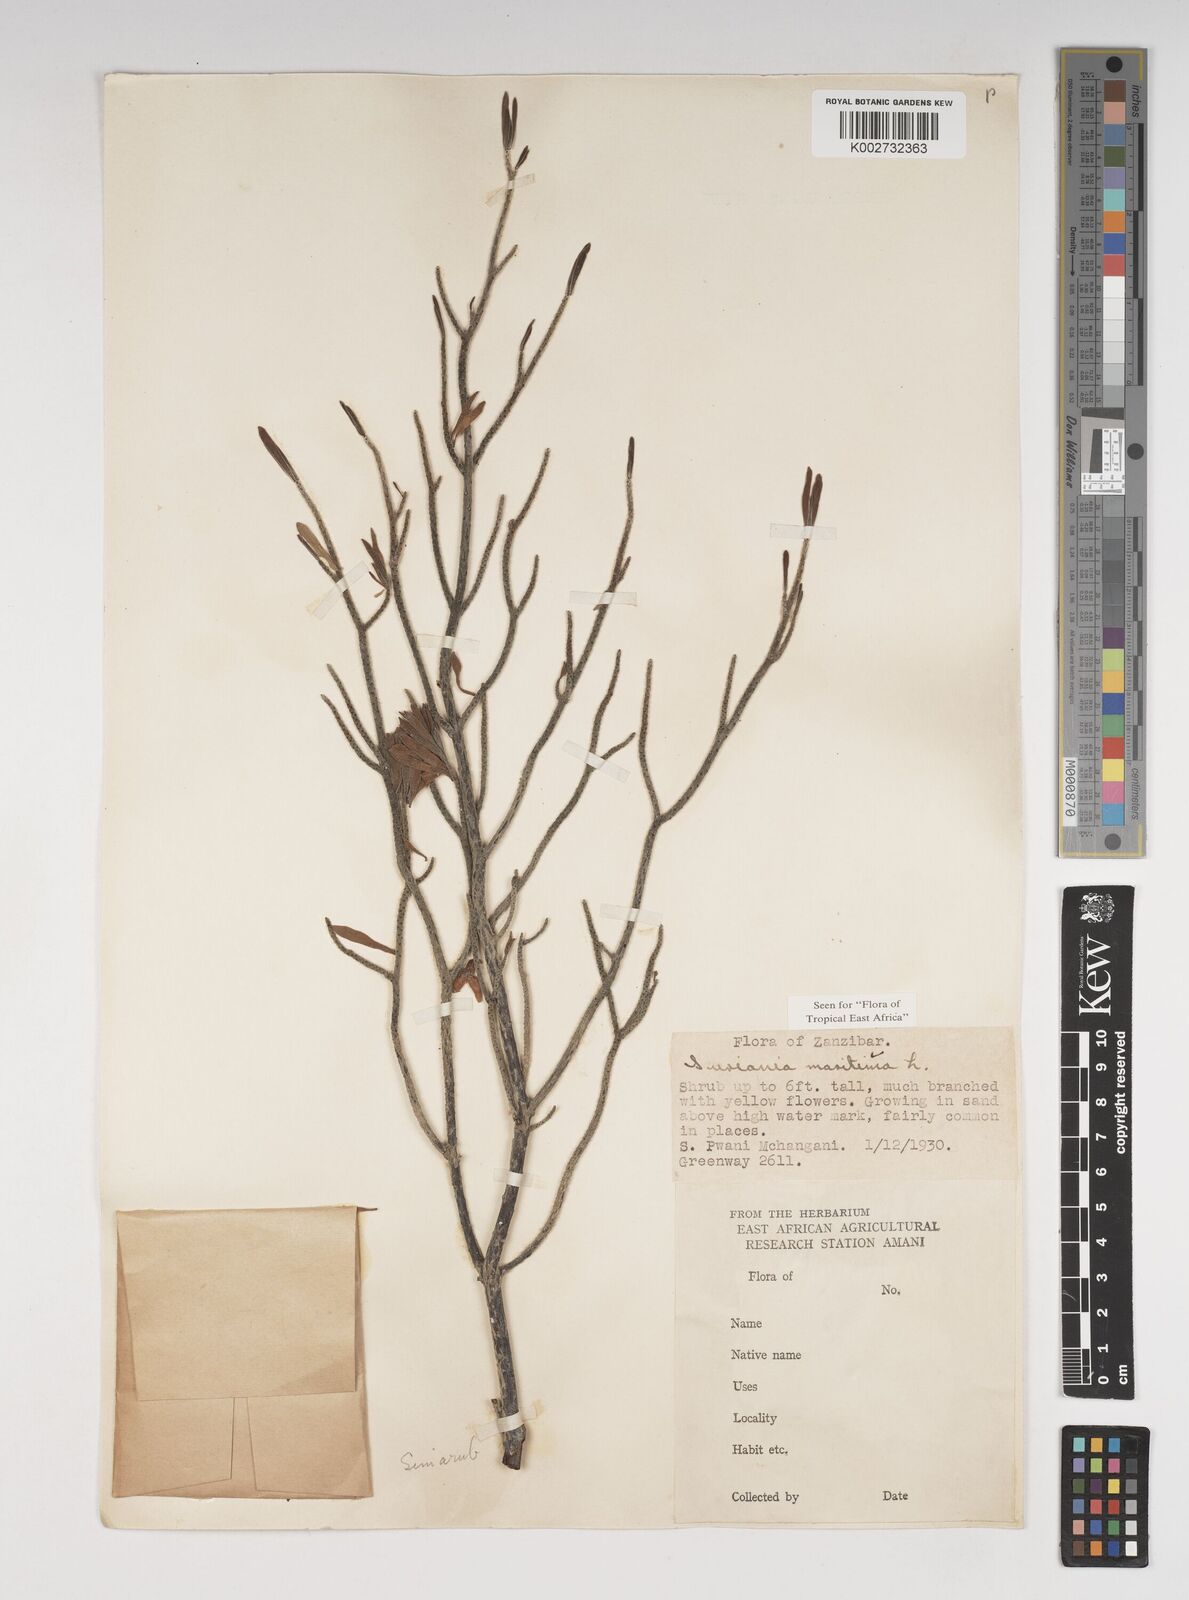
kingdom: Plantae
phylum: Tracheophyta
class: Magnoliopsida
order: Fabales
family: Surianaceae
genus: Suriana
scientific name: Suriana maritima
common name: Bay-cedar
